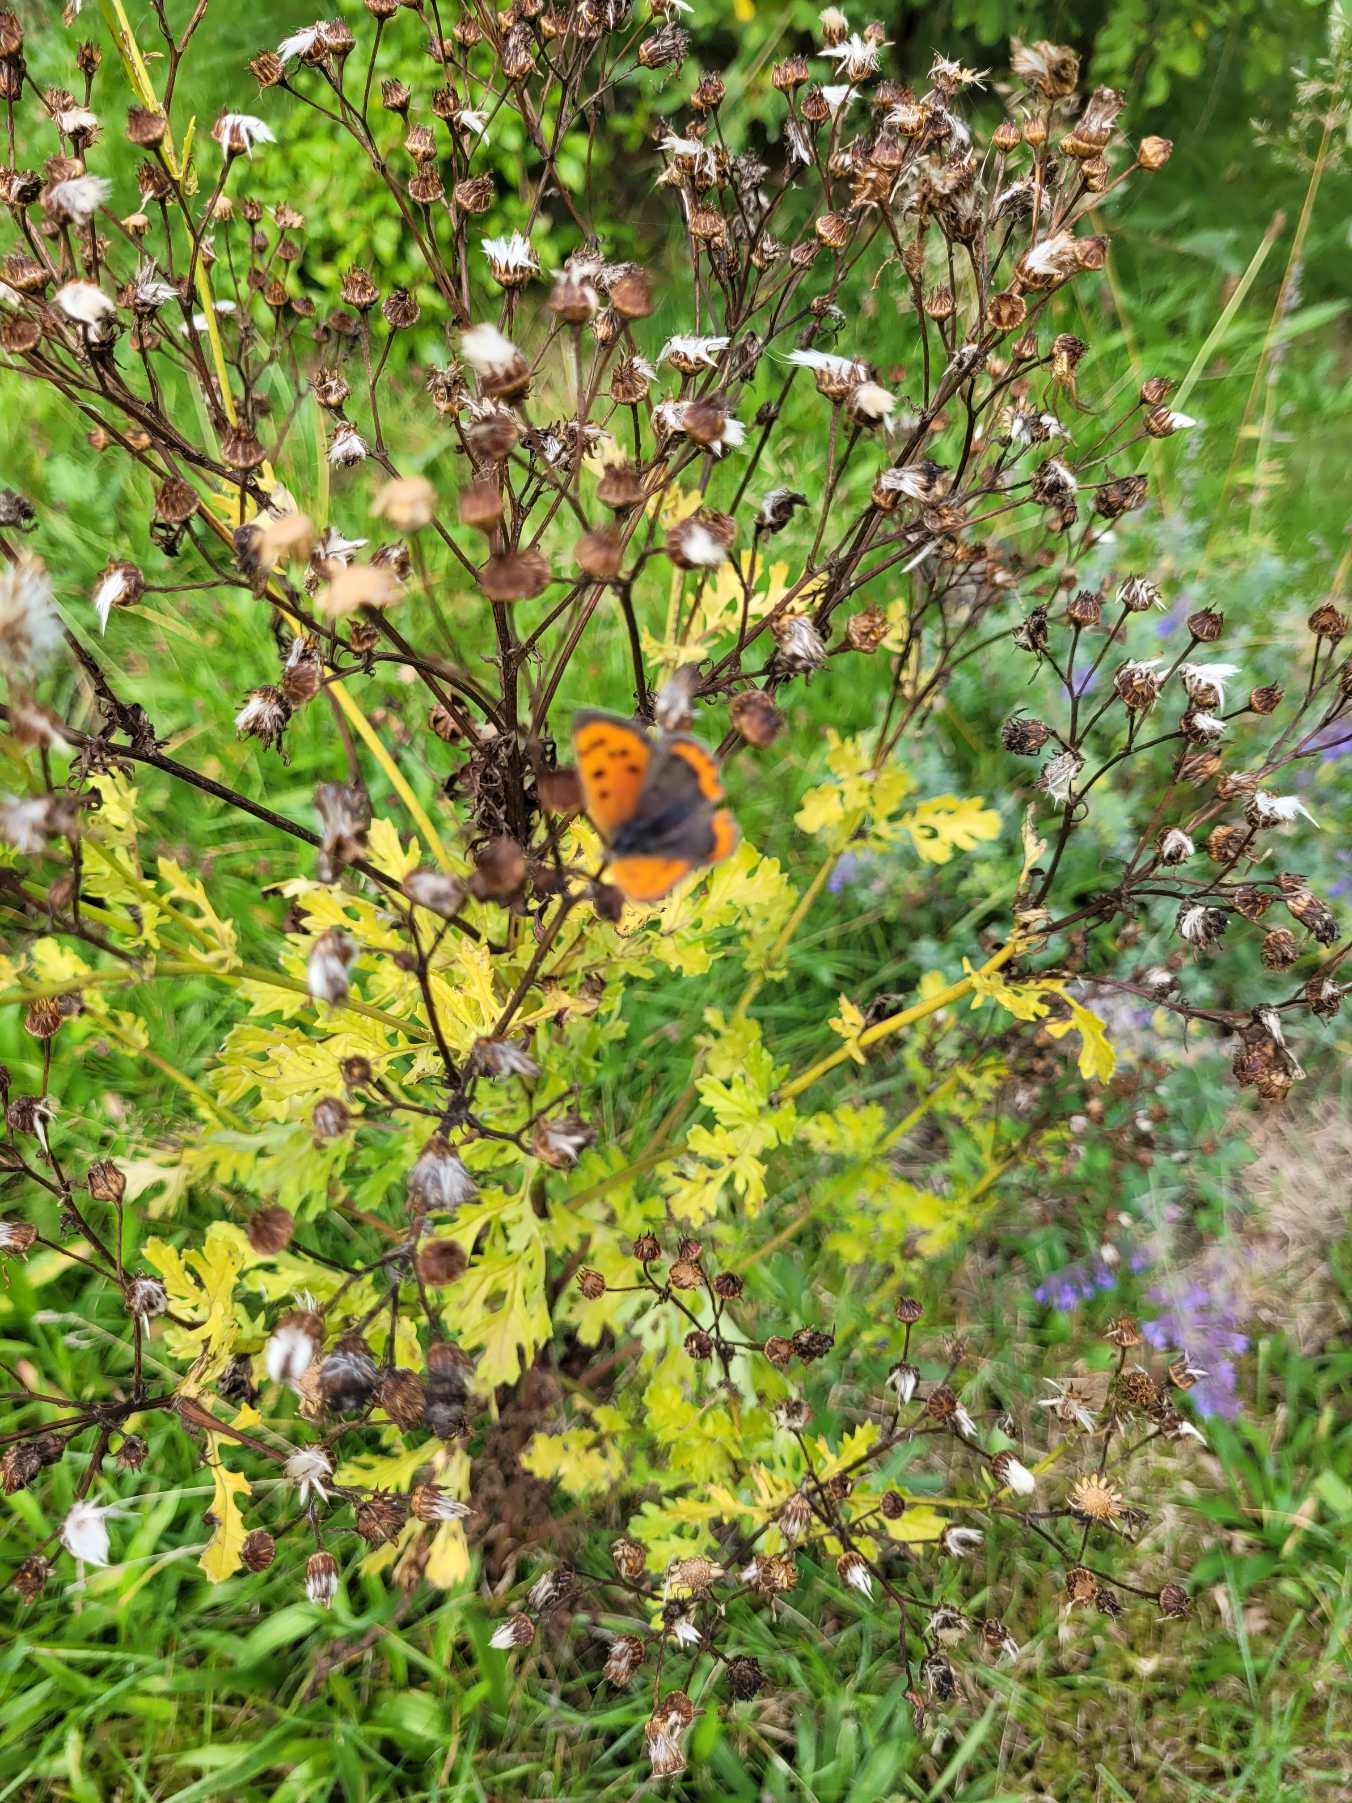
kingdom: Animalia
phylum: Arthropoda
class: Insecta
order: Lepidoptera
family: Lycaenidae
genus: Lycaena
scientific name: Lycaena phlaeas
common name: Lille ildfugl
